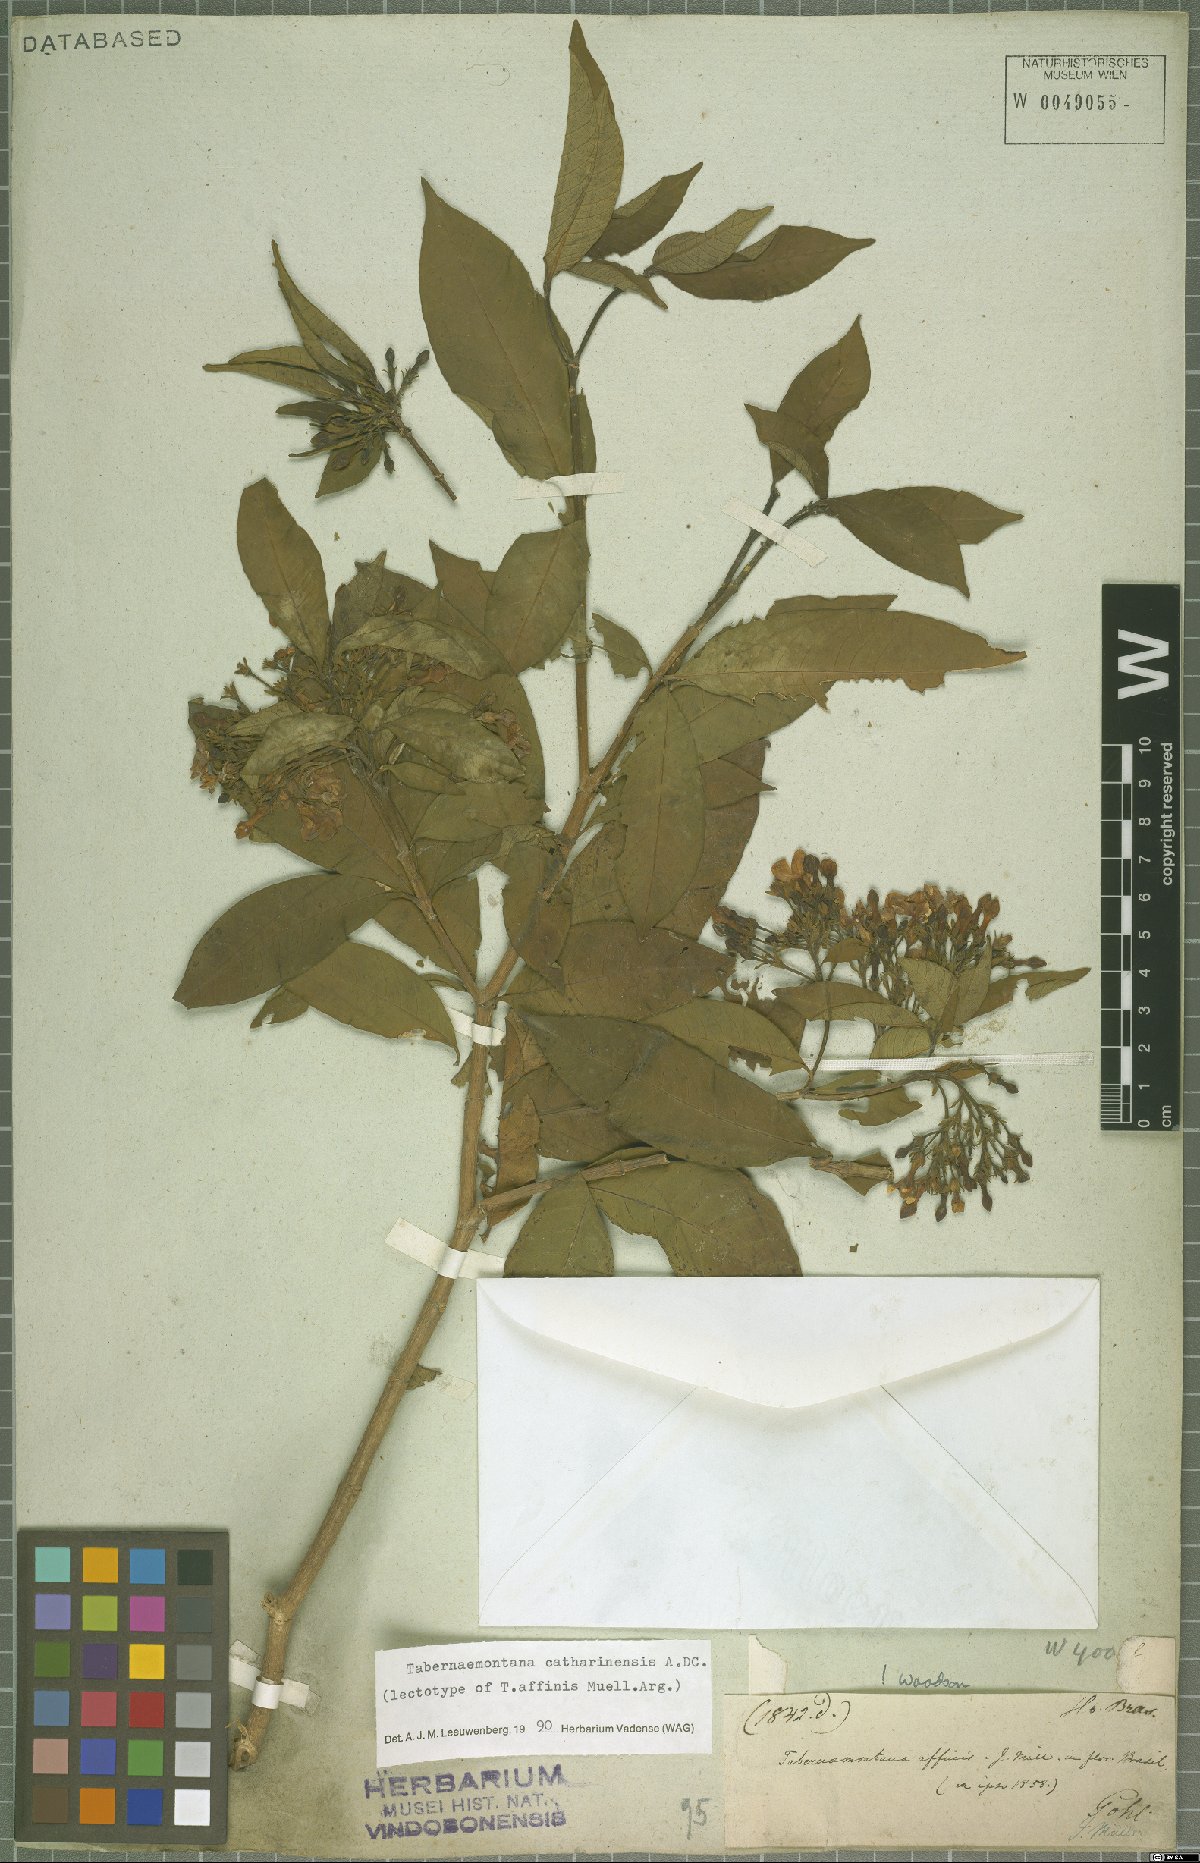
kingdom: Plantae
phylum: Tracheophyta
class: Magnoliopsida
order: Gentianales
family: Apocynaceae
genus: Tabernaemontana
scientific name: Tabernaemontana catharinensis
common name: Pinwheel-flower
